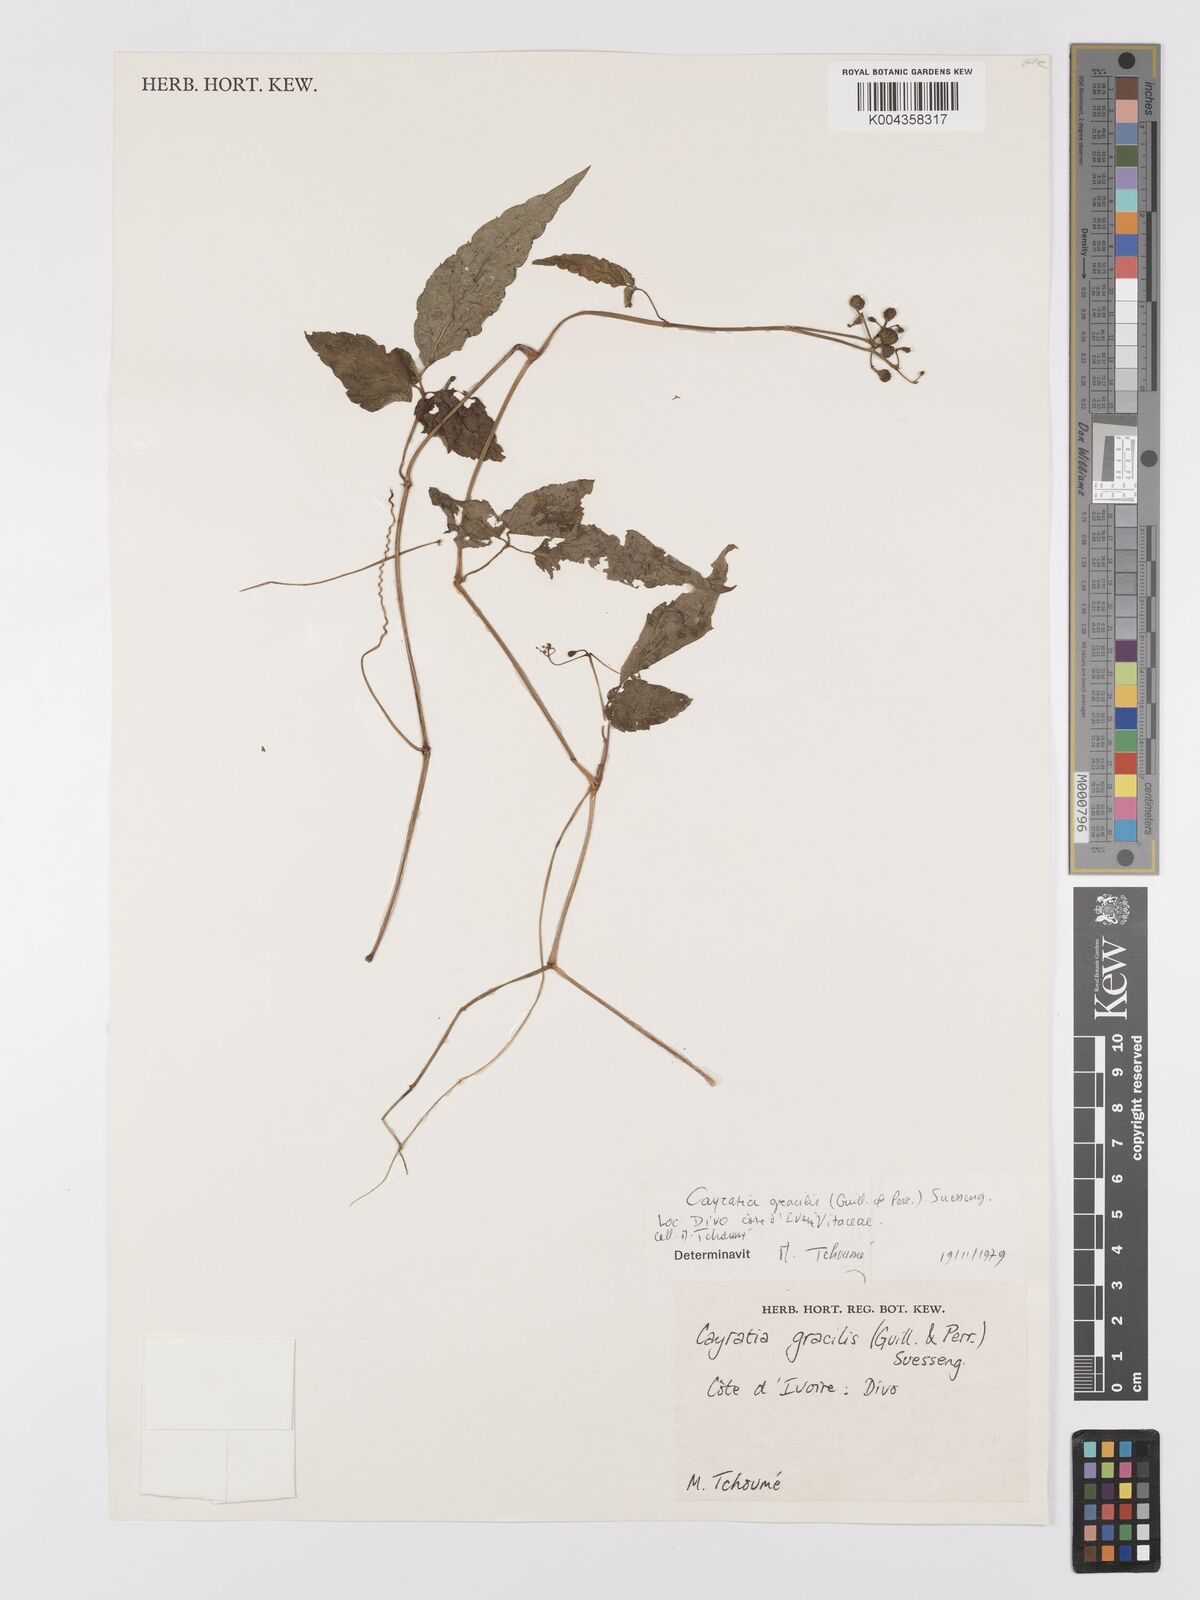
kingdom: Plantae
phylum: Tracheophyta
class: Magnoliopsida
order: Vitales
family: Vitaceae
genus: Afrocayratia
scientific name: Afrocayratia gracilis
